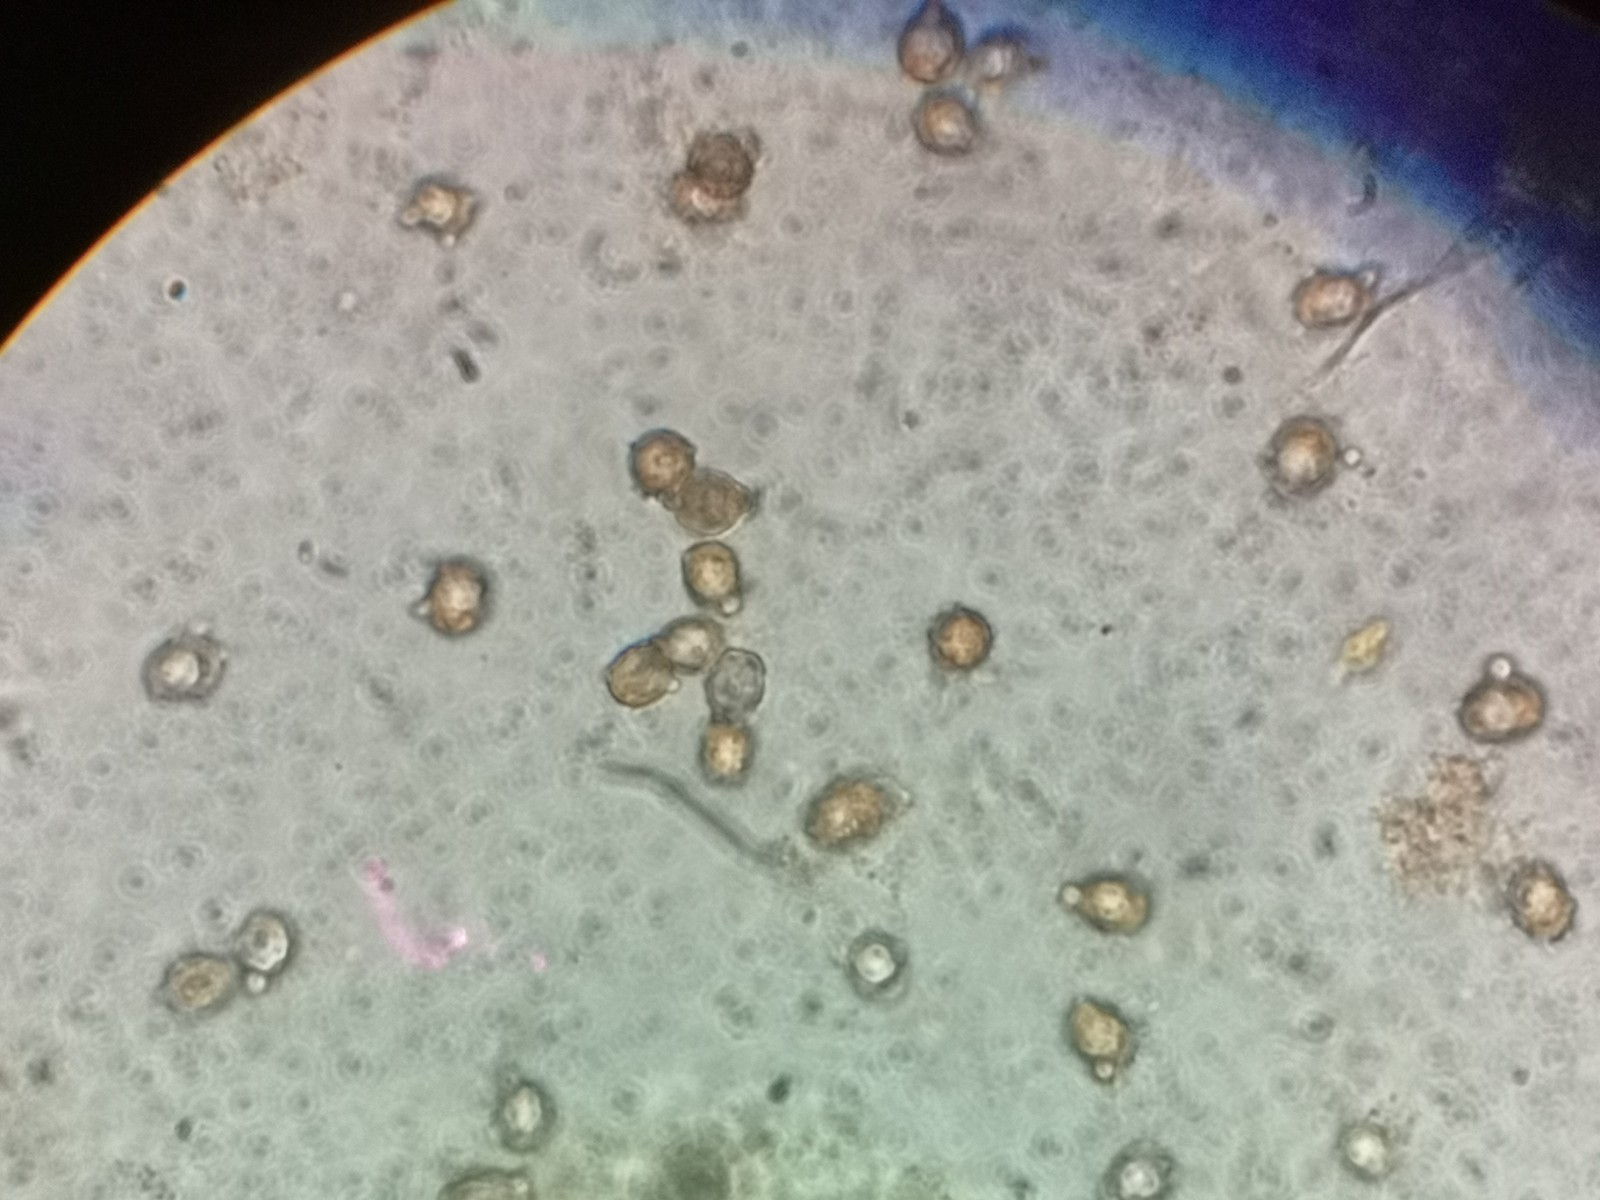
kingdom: Fungi
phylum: Basidiomycota
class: Agaricomycetes
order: Russulales
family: Russulaceae
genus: Lactarius
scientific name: Lactarius
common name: mælkehat
